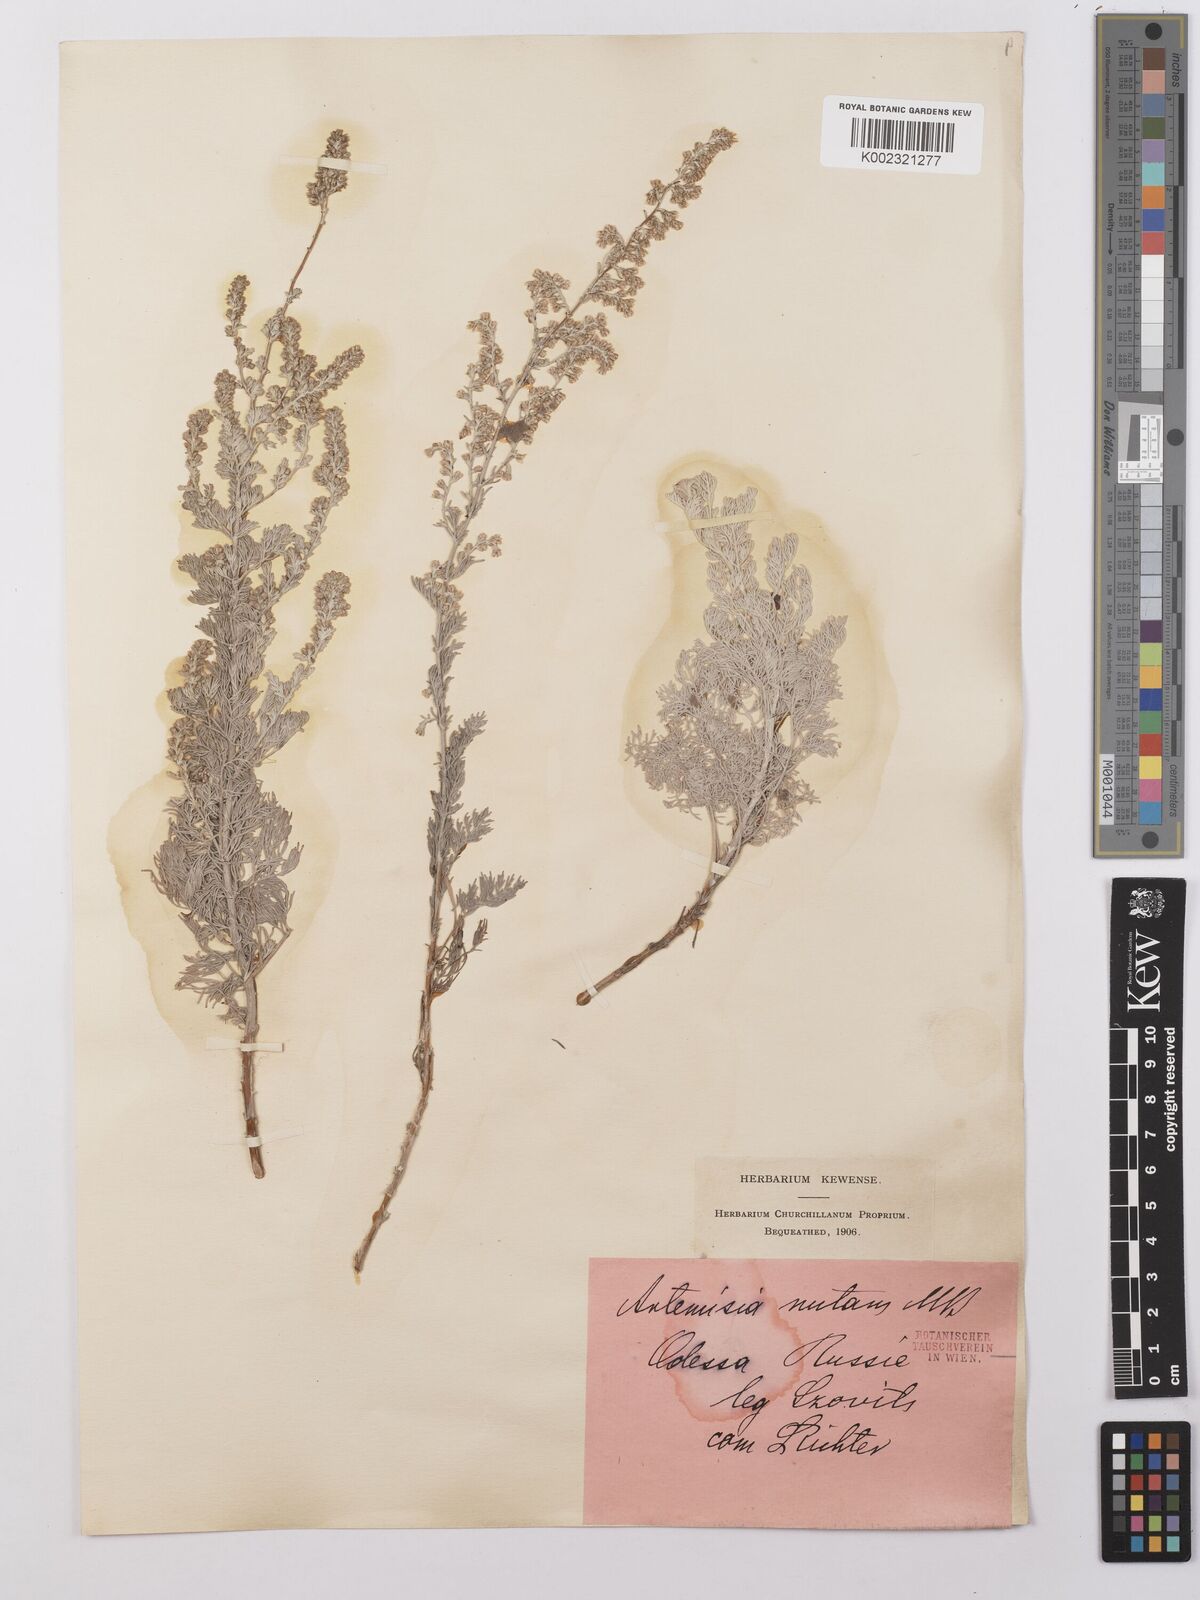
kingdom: Plantae
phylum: Tracheophyta
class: Magnoliopsida
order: Asterales
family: Asteraceae
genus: Artemisia
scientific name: Artemisia nutans
